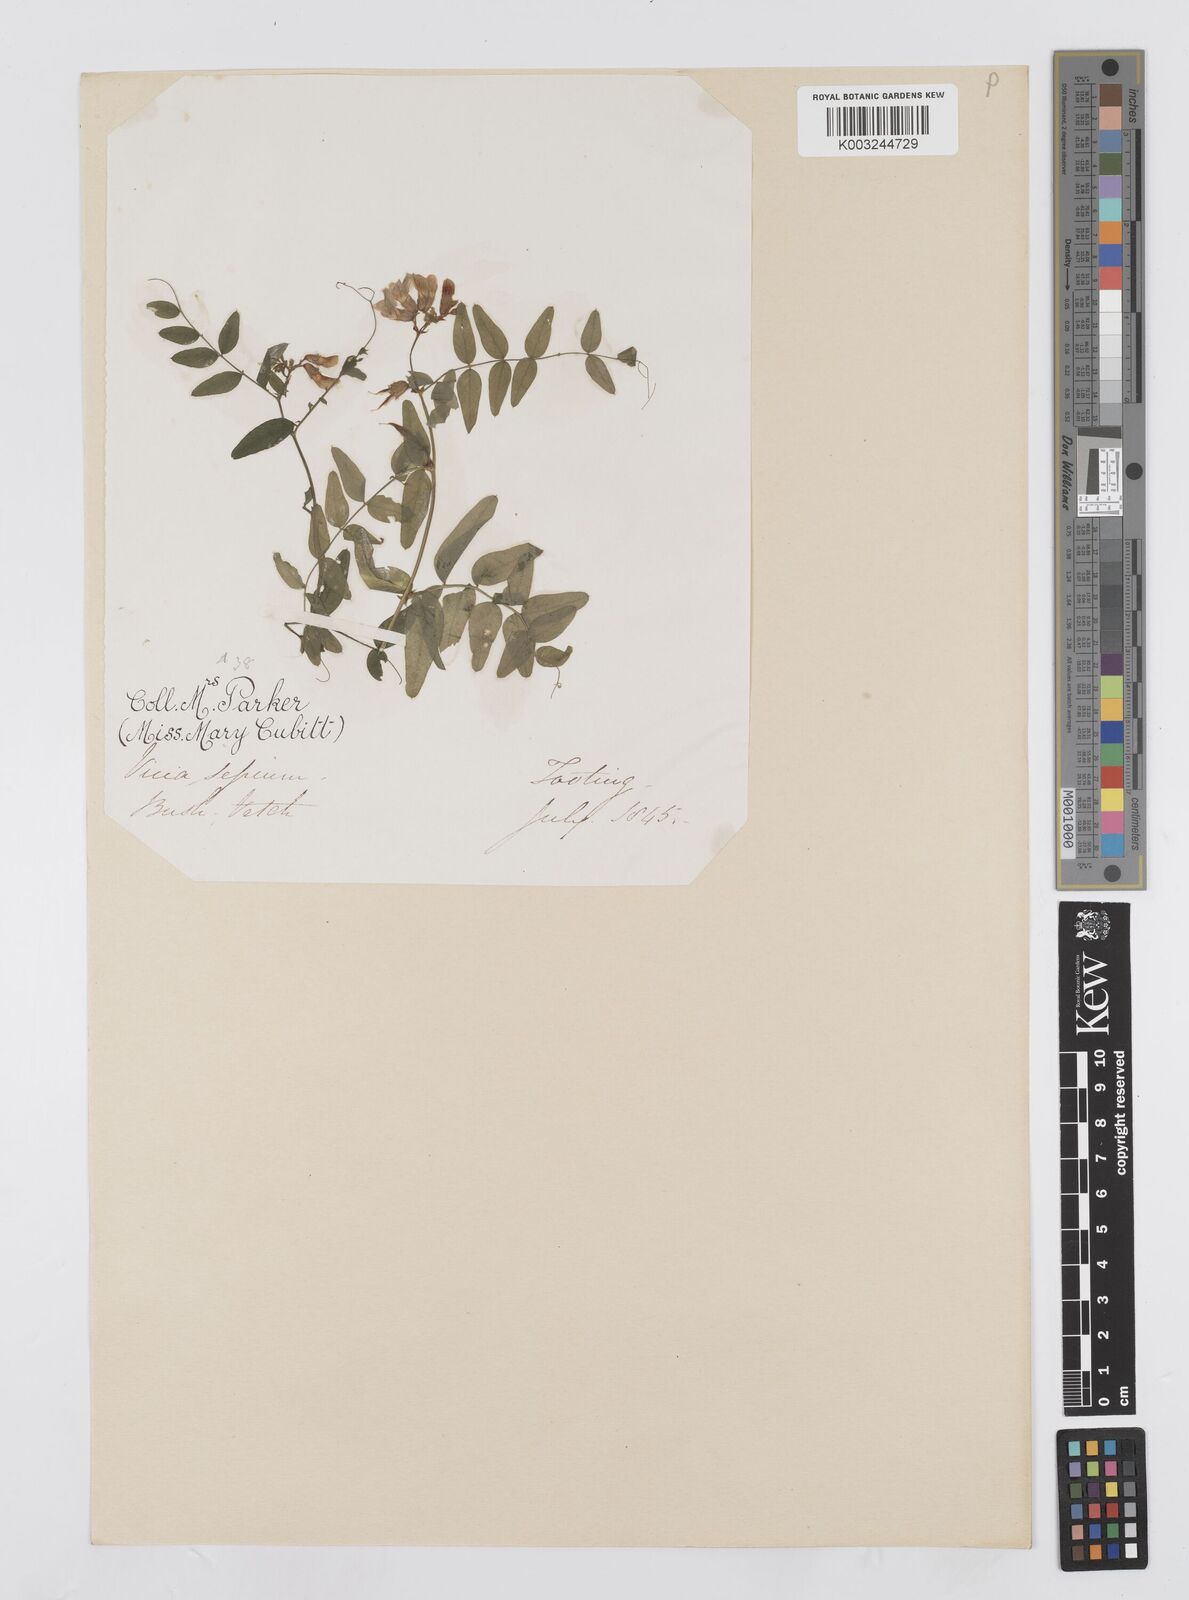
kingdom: Plantae
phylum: Tracheophyta
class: Magnoliopsida
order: Fabales
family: Fabaceae
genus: Vicia
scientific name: Vicia sepium
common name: Bush vetch
